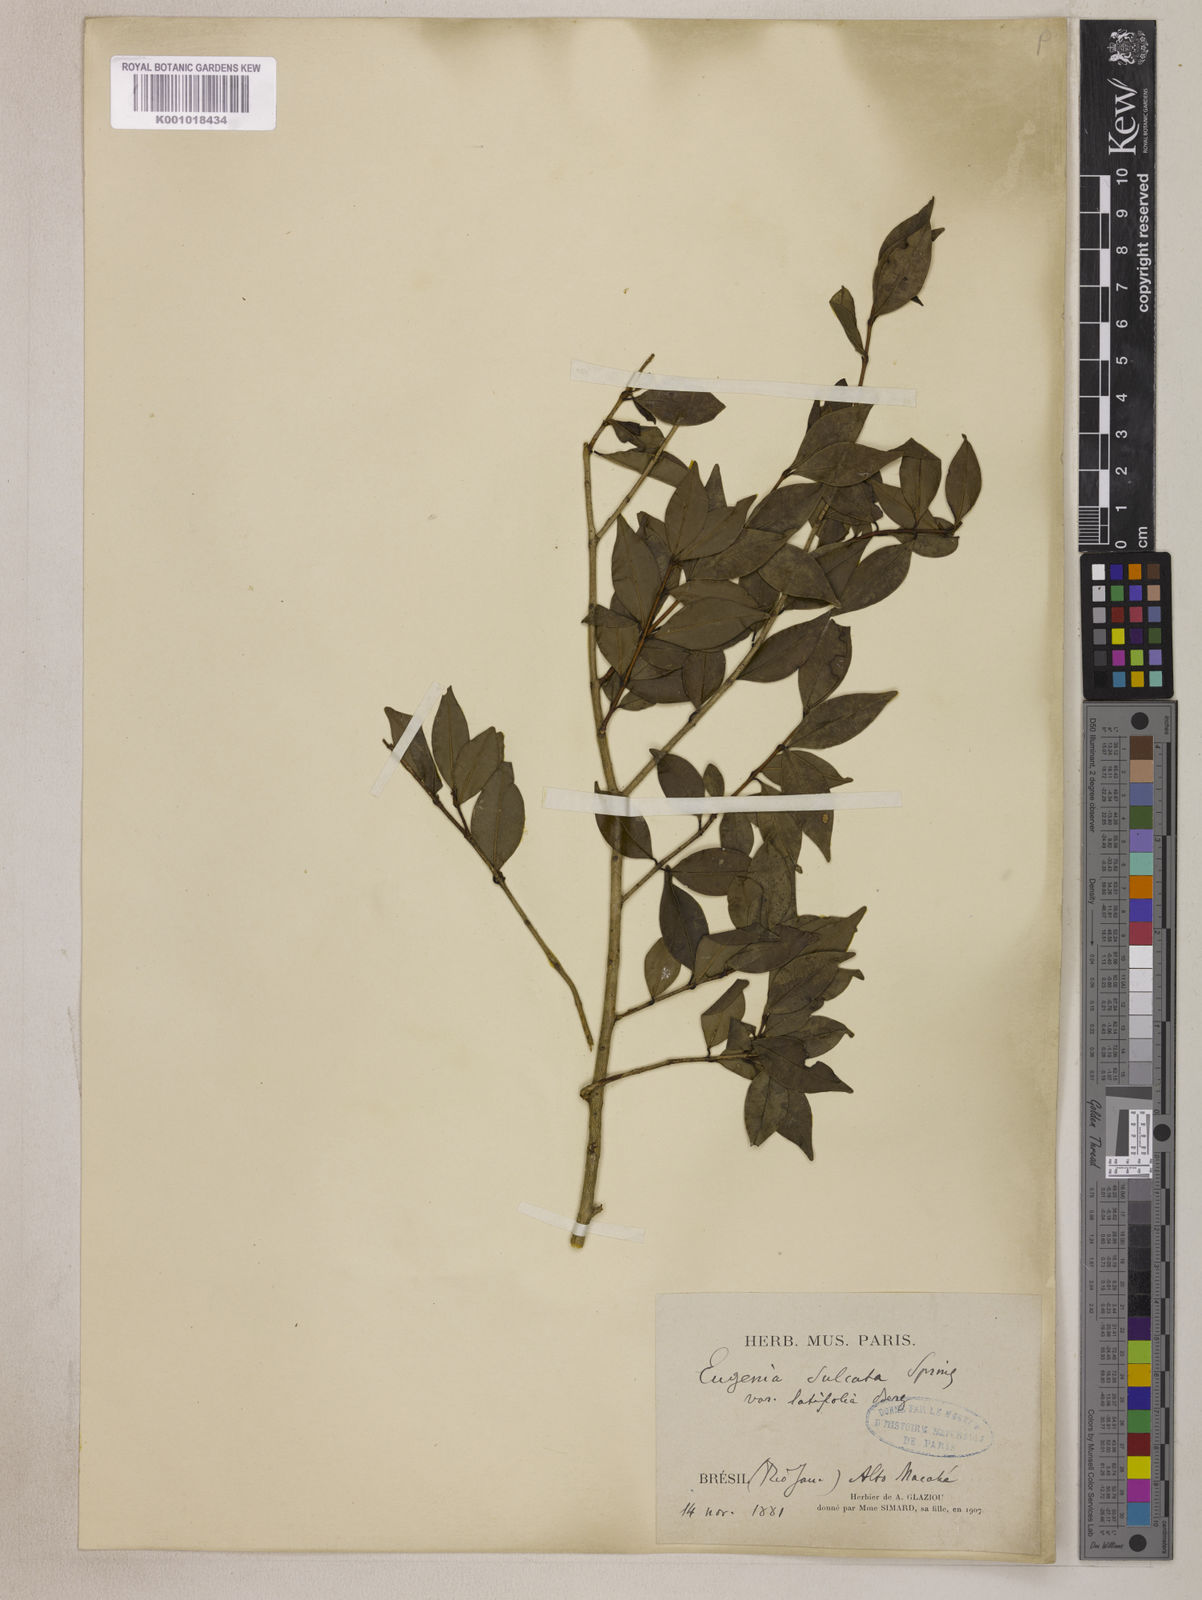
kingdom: Plantae
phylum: Tracheophyta
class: Magnoliopsida
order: Myrtales
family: Myrtaceae
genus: Eugenia
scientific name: Eugenia sulcata
